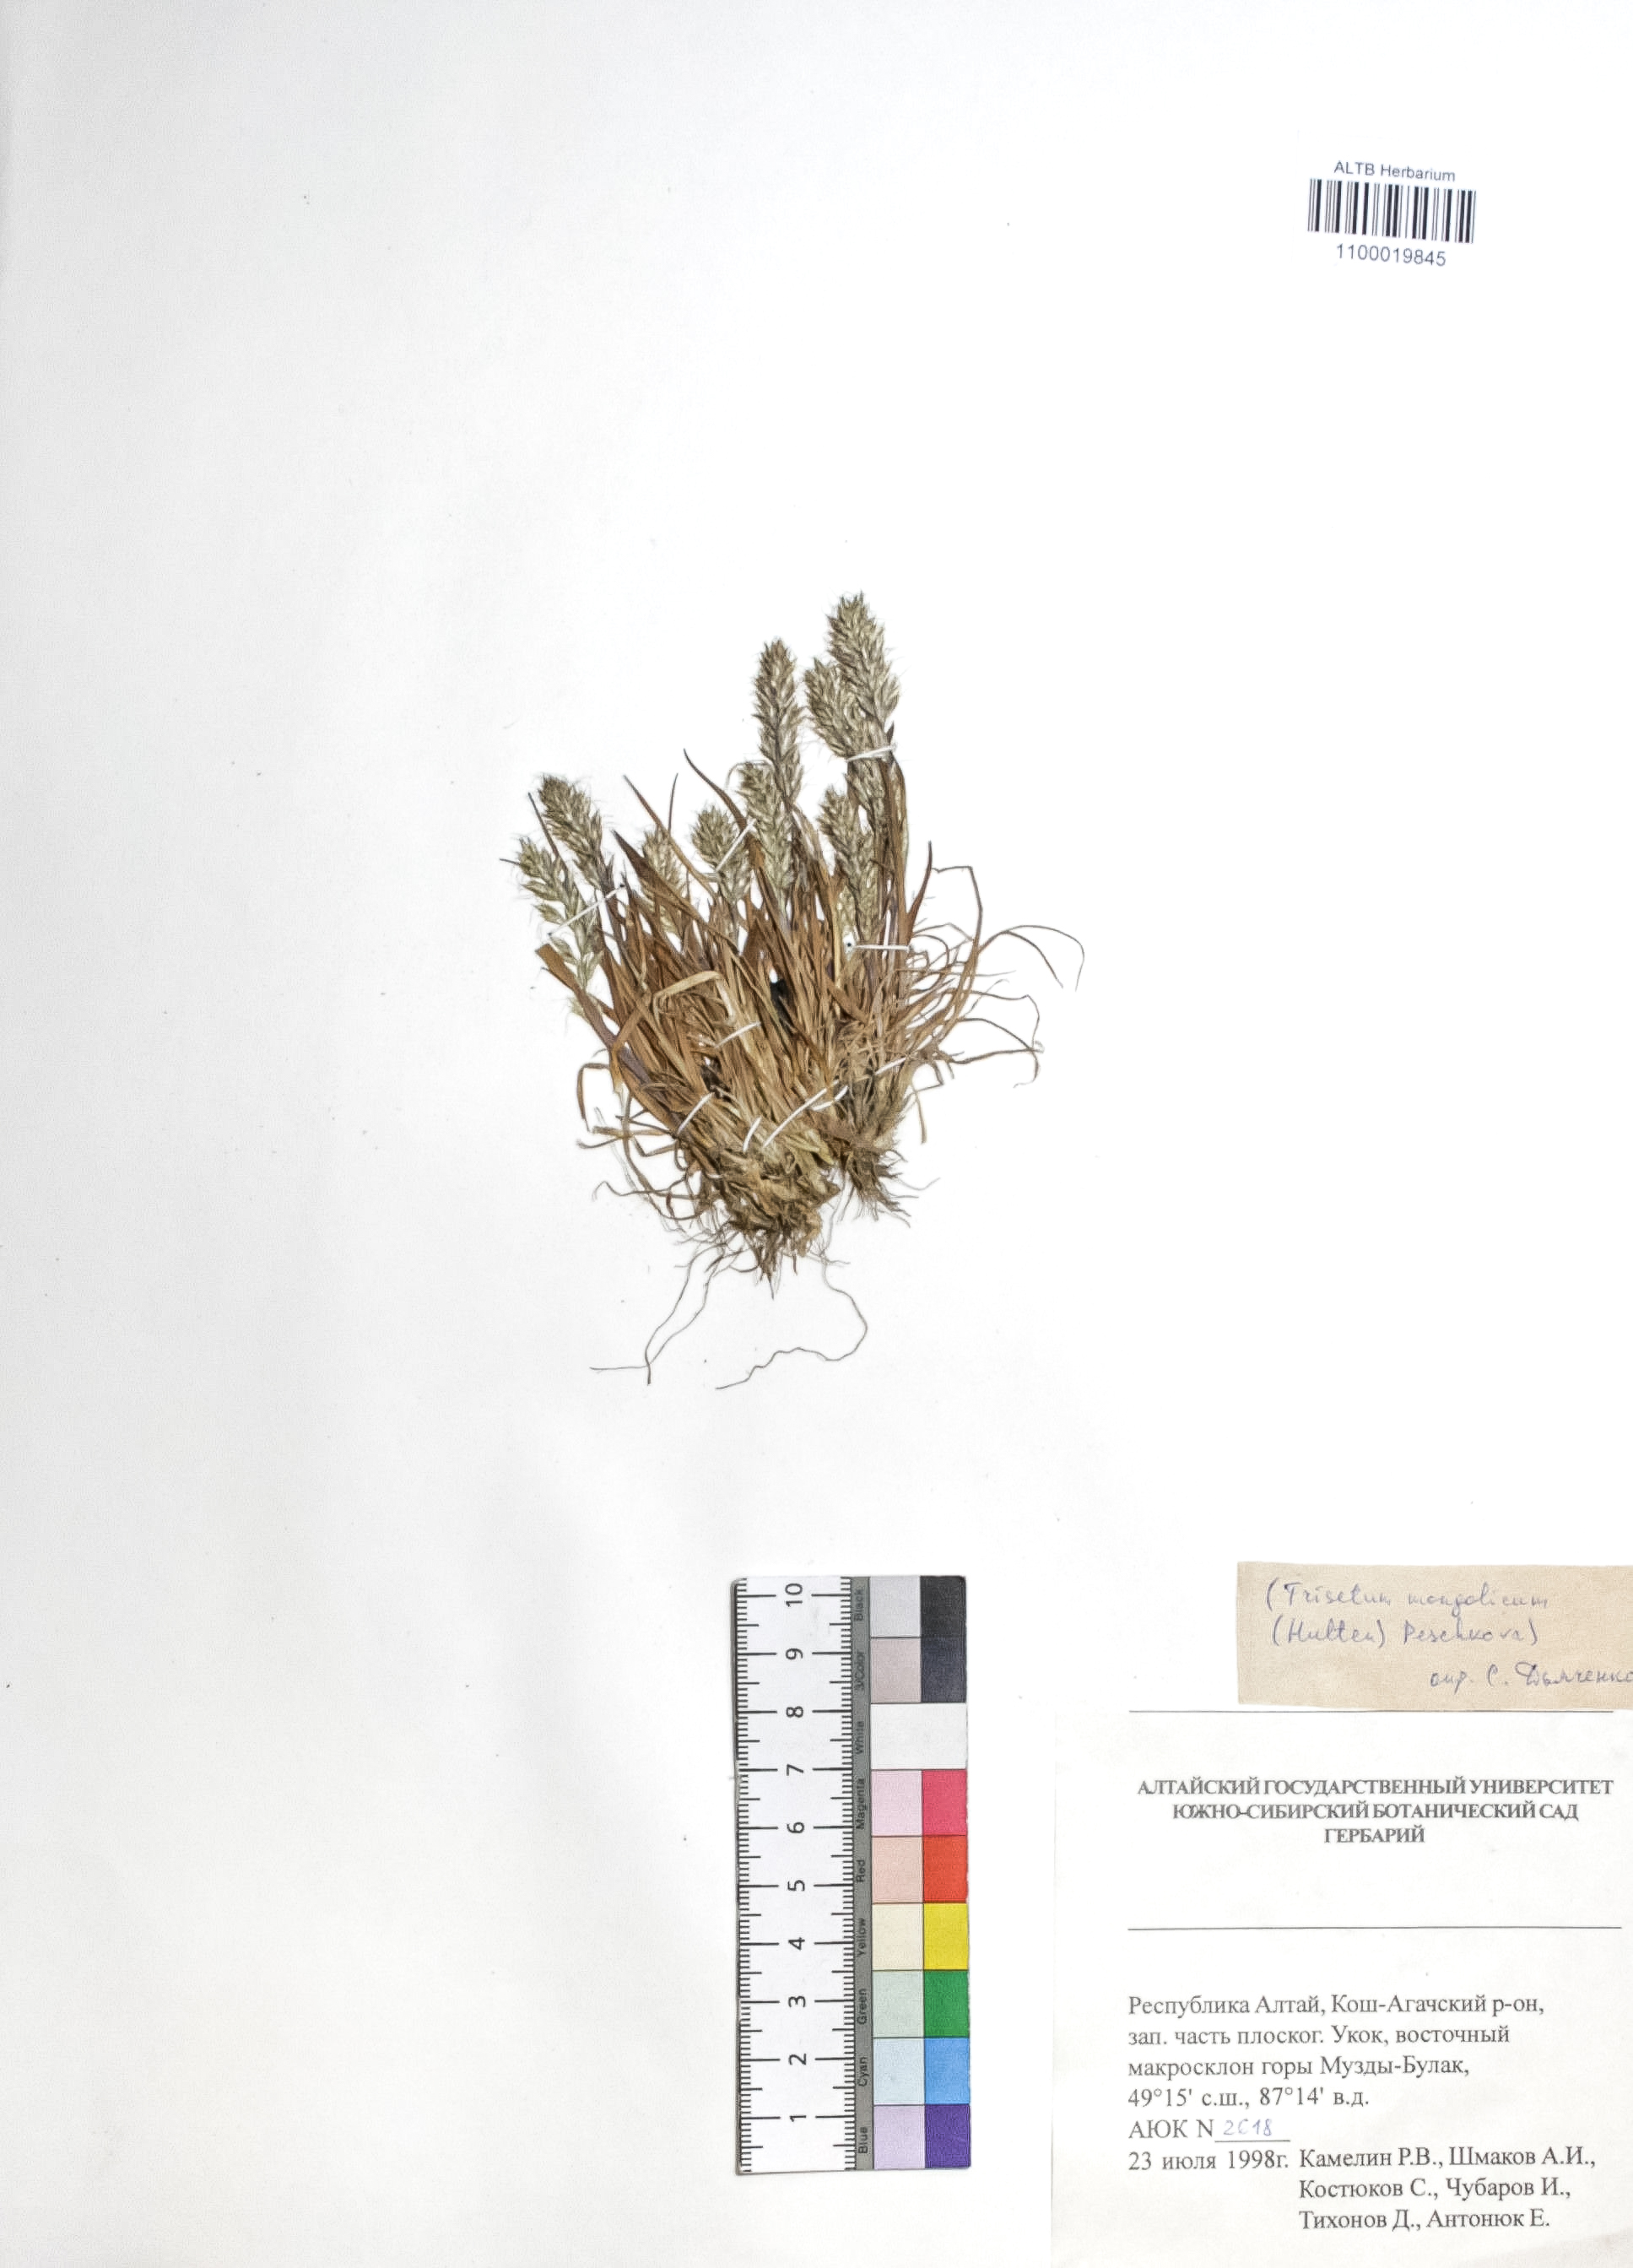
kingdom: Plantae
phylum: Tracheophyta
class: Liliopsida
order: Poales
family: Poaceae
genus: Koeleria
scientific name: Koeleria spicata
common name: Mountain trisetum
